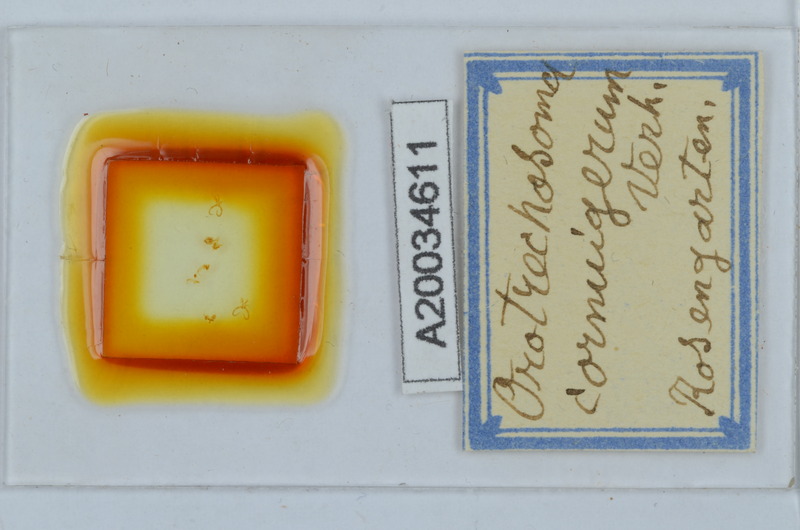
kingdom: Animalia
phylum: Arthropoda
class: Diplopoda
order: Chordeumatida
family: Craspedosomatidae
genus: Pterygophorosoma
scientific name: Pterygophorosoma cornuigerum
